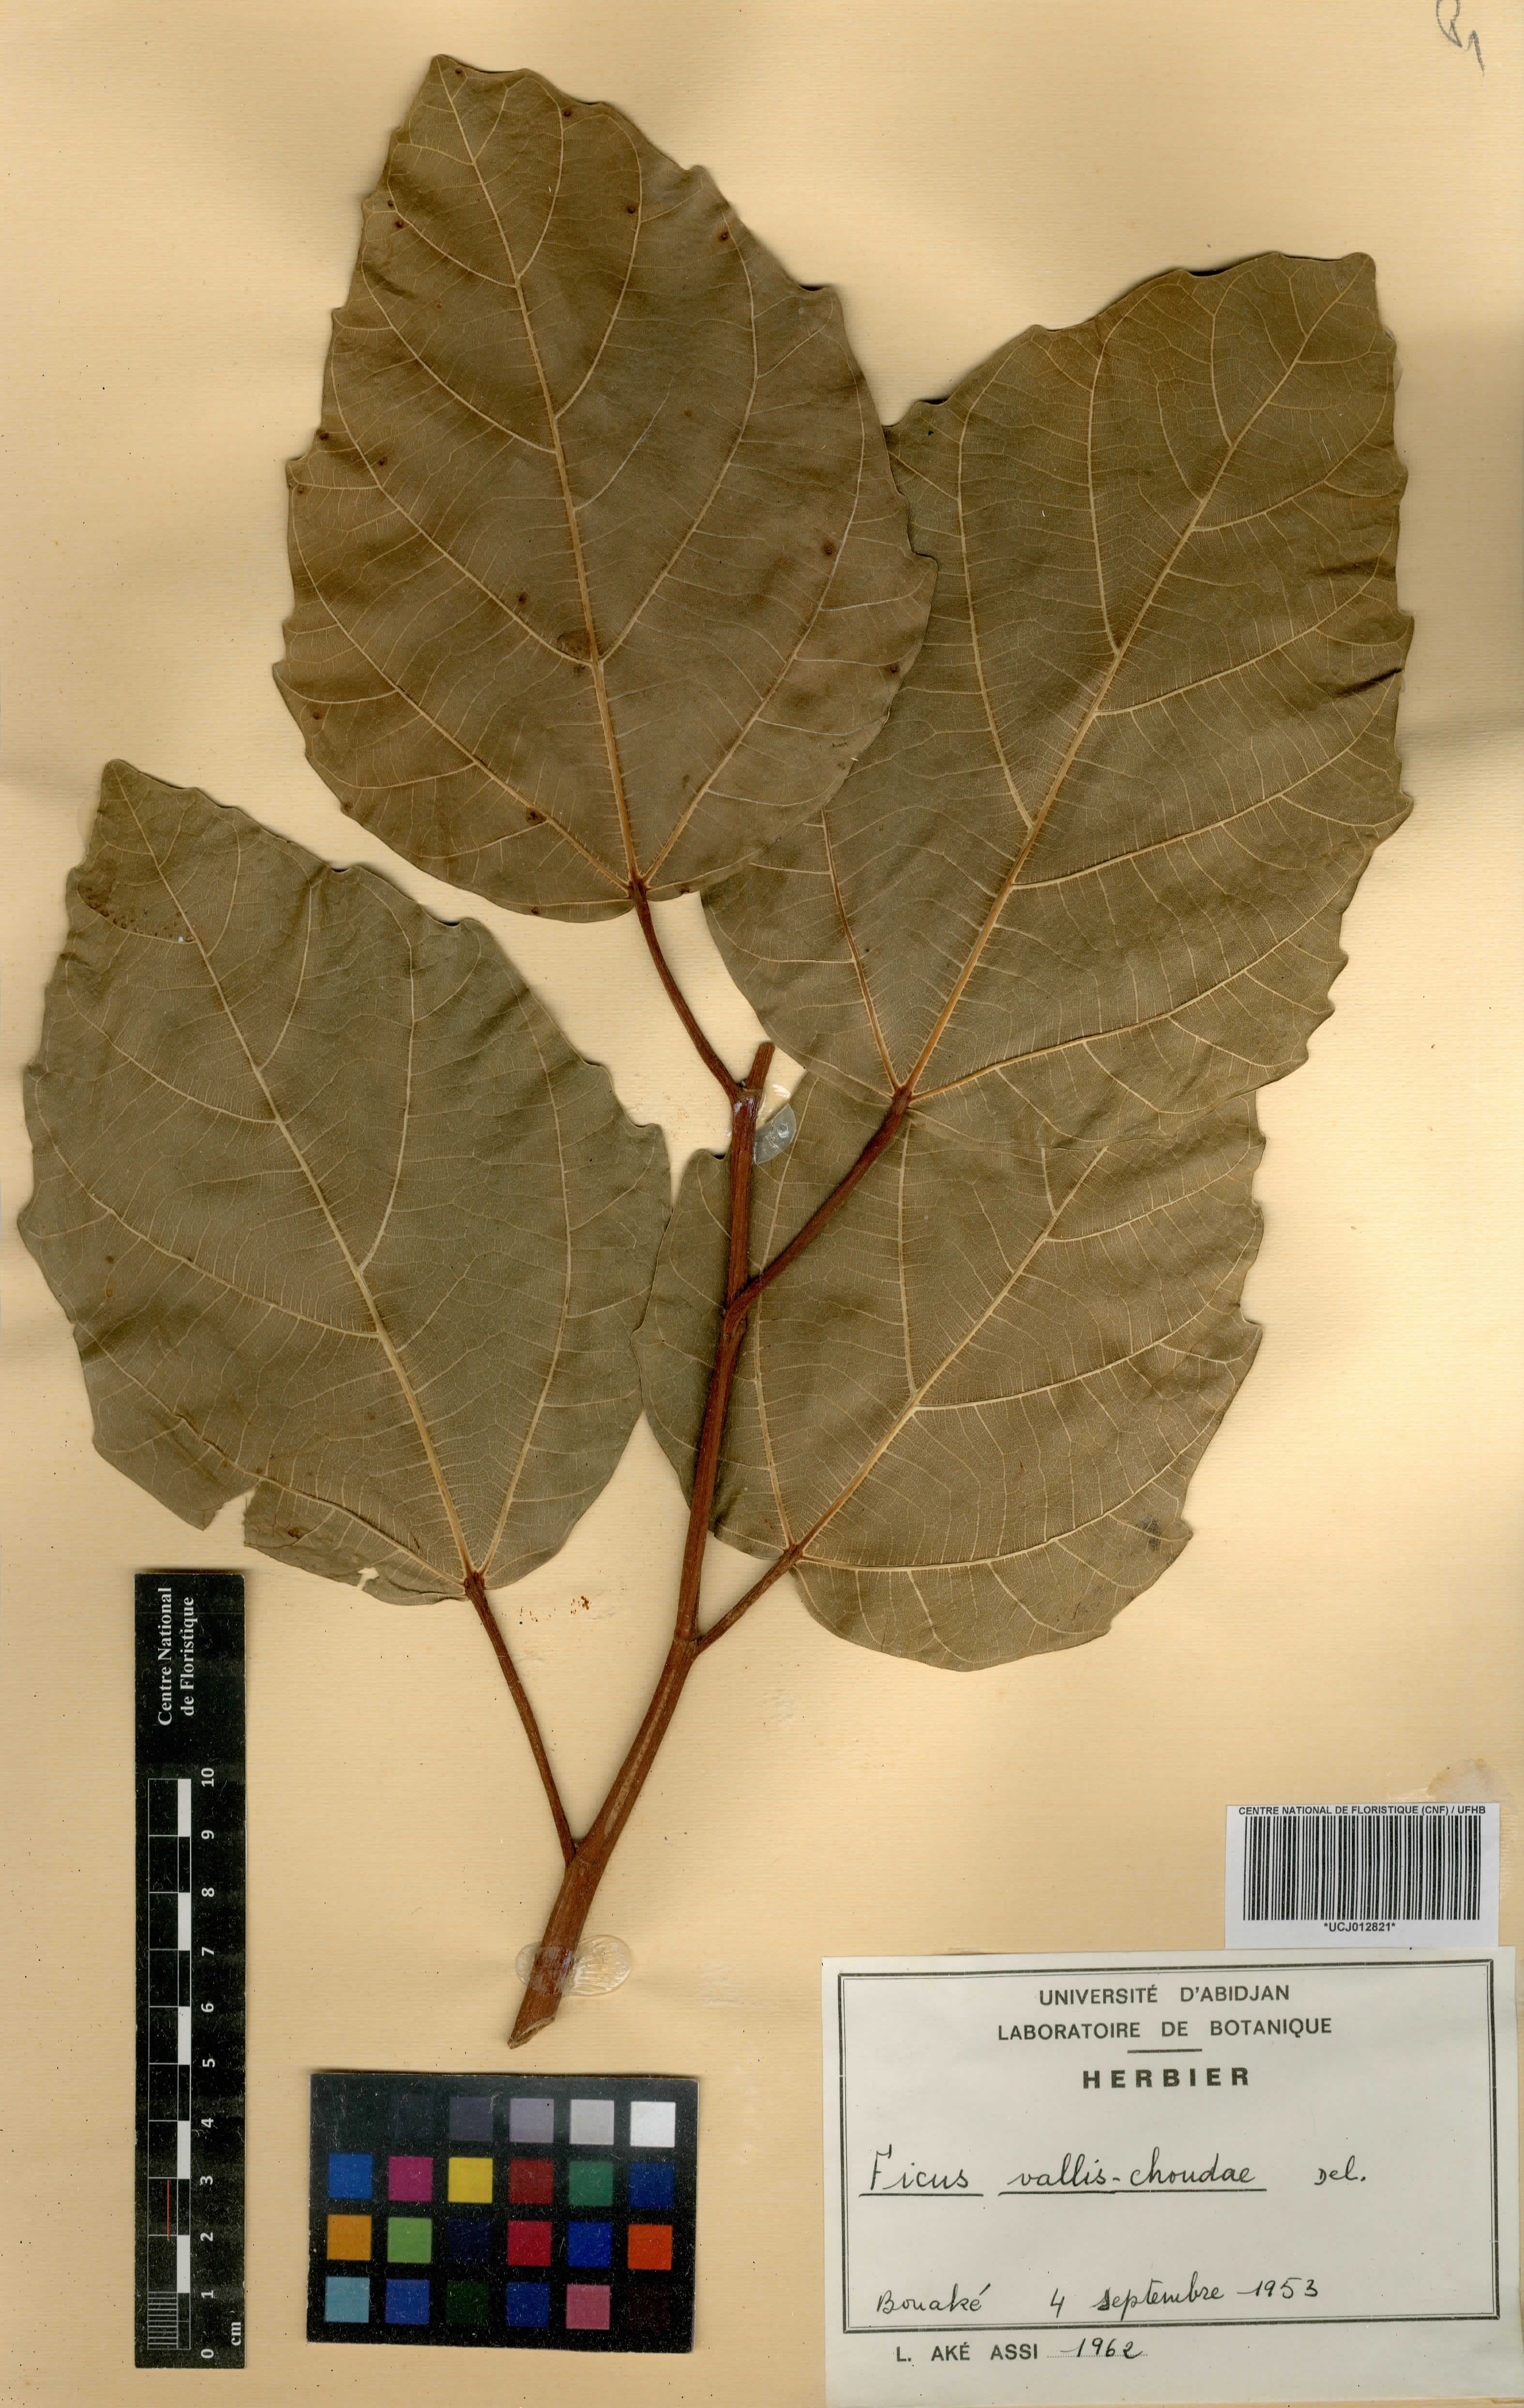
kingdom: Plantae
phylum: Tracheophyta
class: Magnoliopsida
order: Rosales
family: Moraceae
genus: Ficus
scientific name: Ficus vallis-choudae
